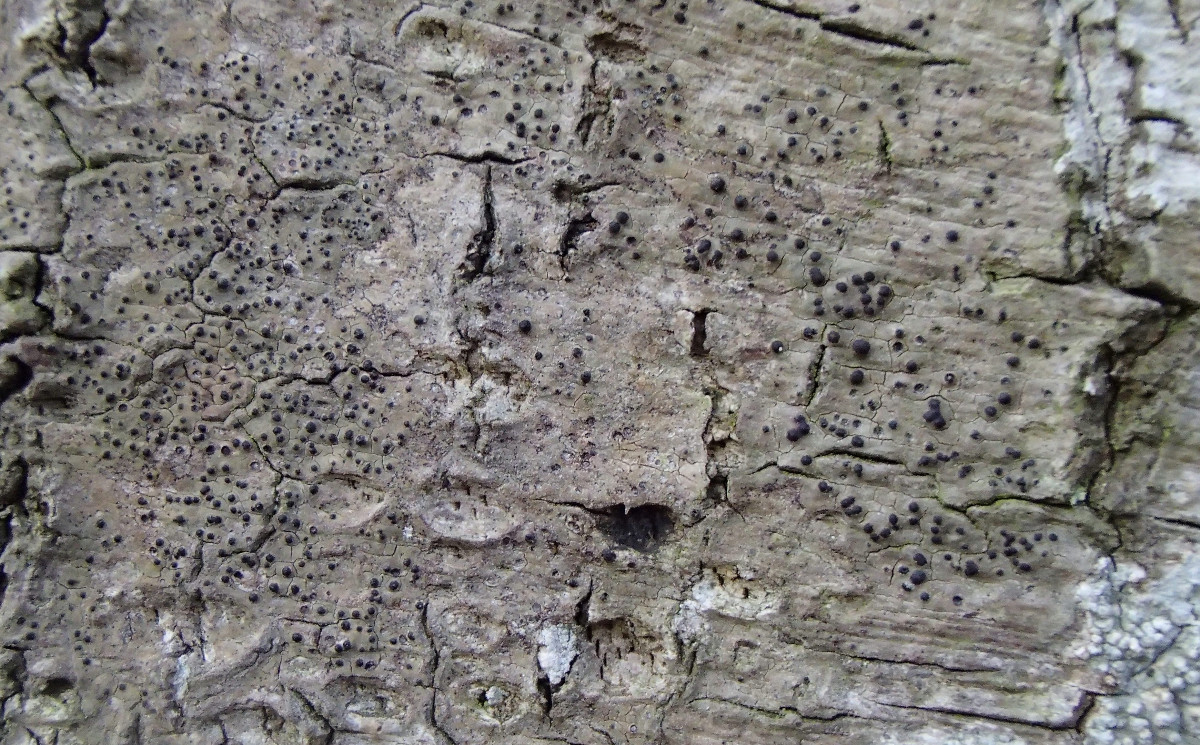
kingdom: Fungi
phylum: Ascomycota
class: Eurotiomycetes
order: Pyrenulales
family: Pyrenulaceae
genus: Pyrenula
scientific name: Pyrenula nitida
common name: glinsende kernelav
